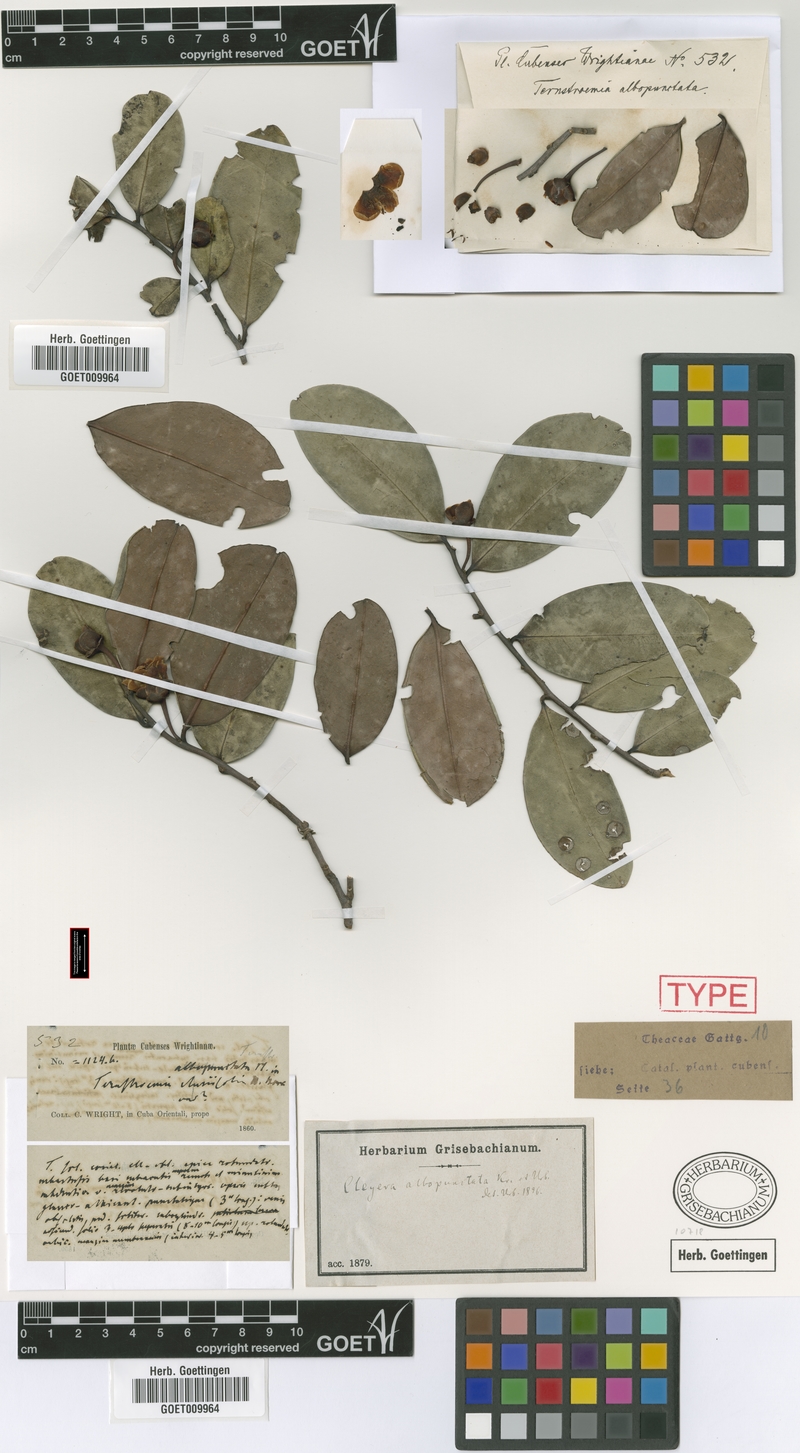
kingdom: Plantae
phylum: Tracheophyta
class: Magnoliopsida
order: Ericales
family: Pentaphylacaceae
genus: Cleyera
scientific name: Cleyera albopunctata
